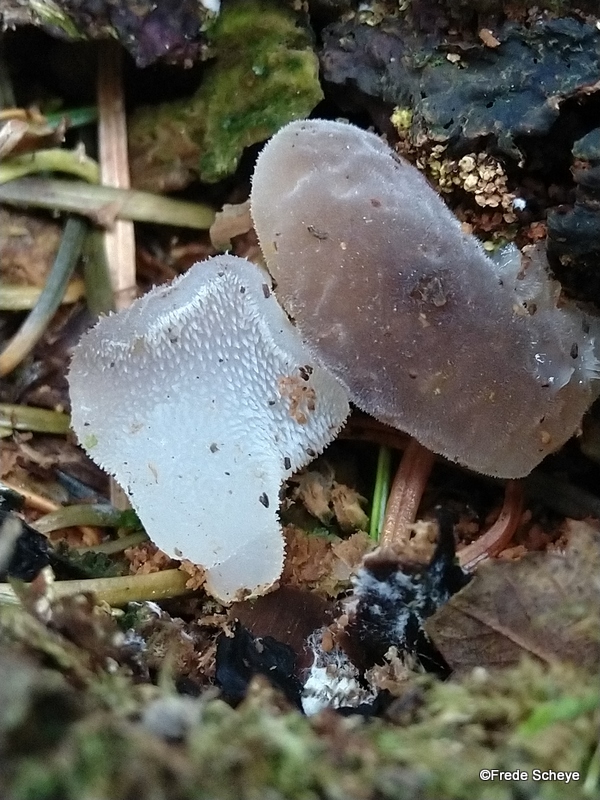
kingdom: Fungi
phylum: Basidiomycota
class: Agaricomycetes
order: Auriculariales
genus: Pseudohydnum
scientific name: Pseudohydnum gelatinosum
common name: bævretand
